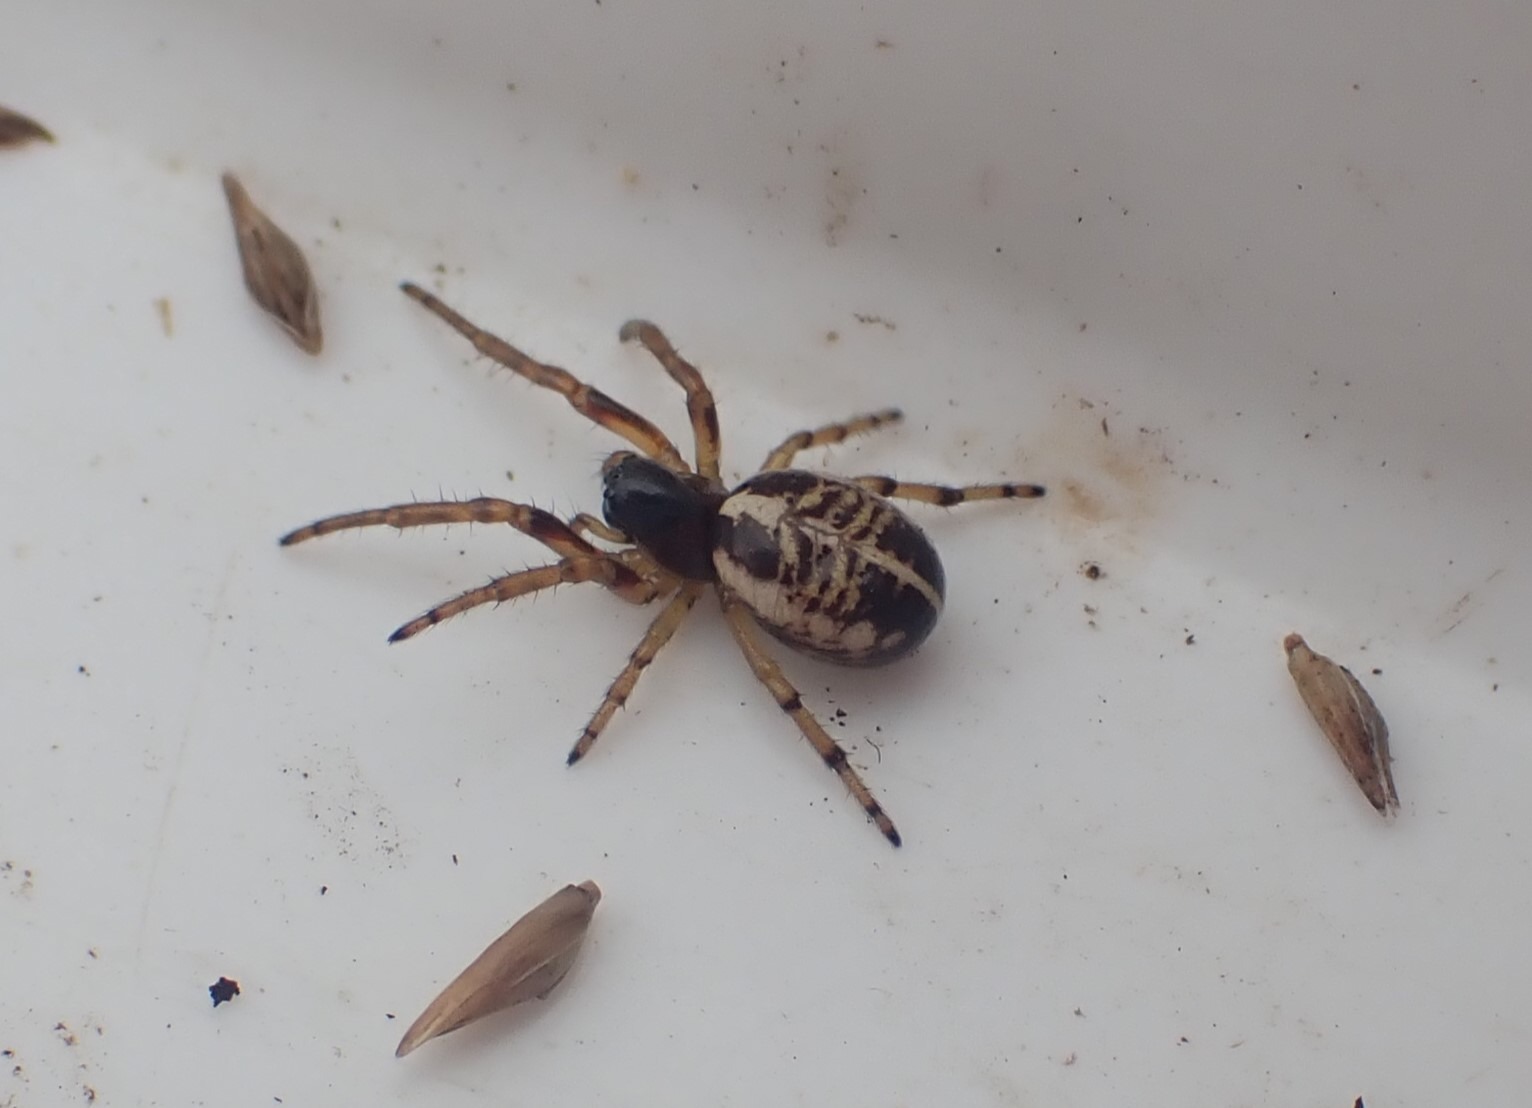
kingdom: Animalia
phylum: Arthropoda
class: Arachnida
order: Araneae
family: Araneidae
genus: Singa
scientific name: Singa hamata
